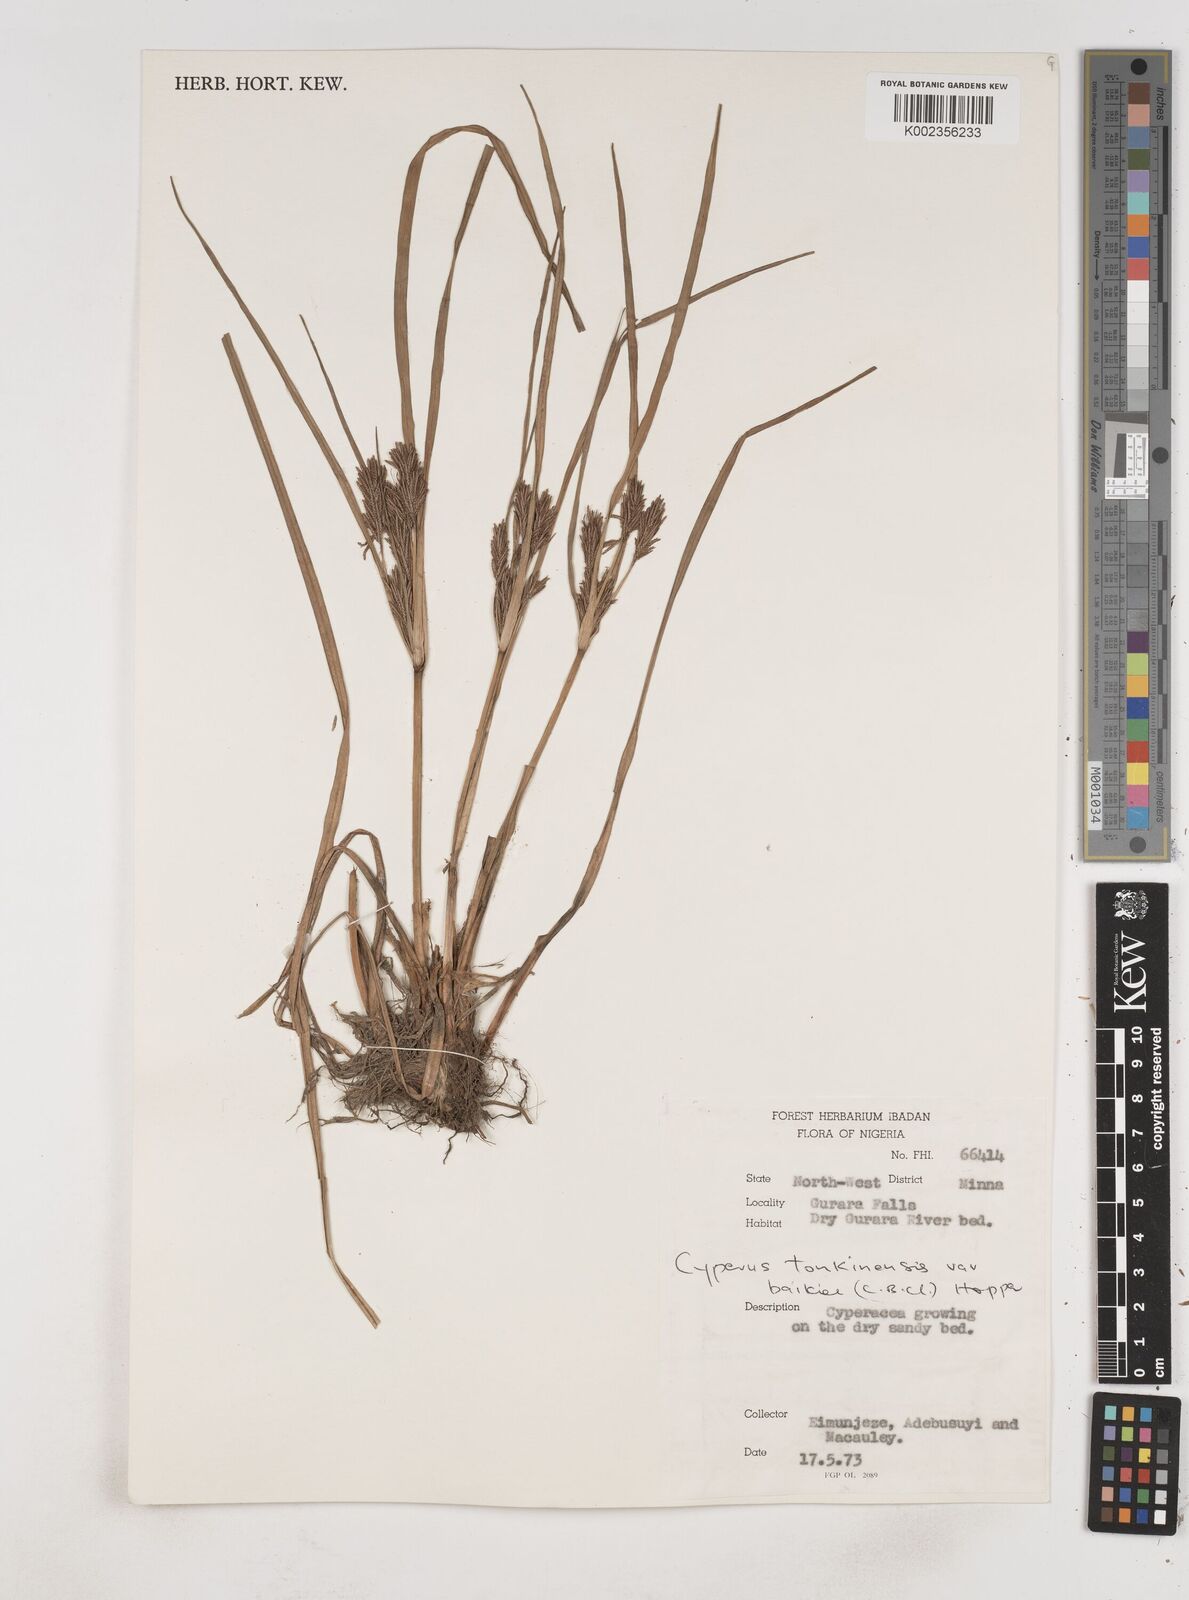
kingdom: Plantae
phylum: Tracheophyta
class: Liliopsida
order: Poales
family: Cyperaceae
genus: Cyperus
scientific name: Cyperus tonkinensis
